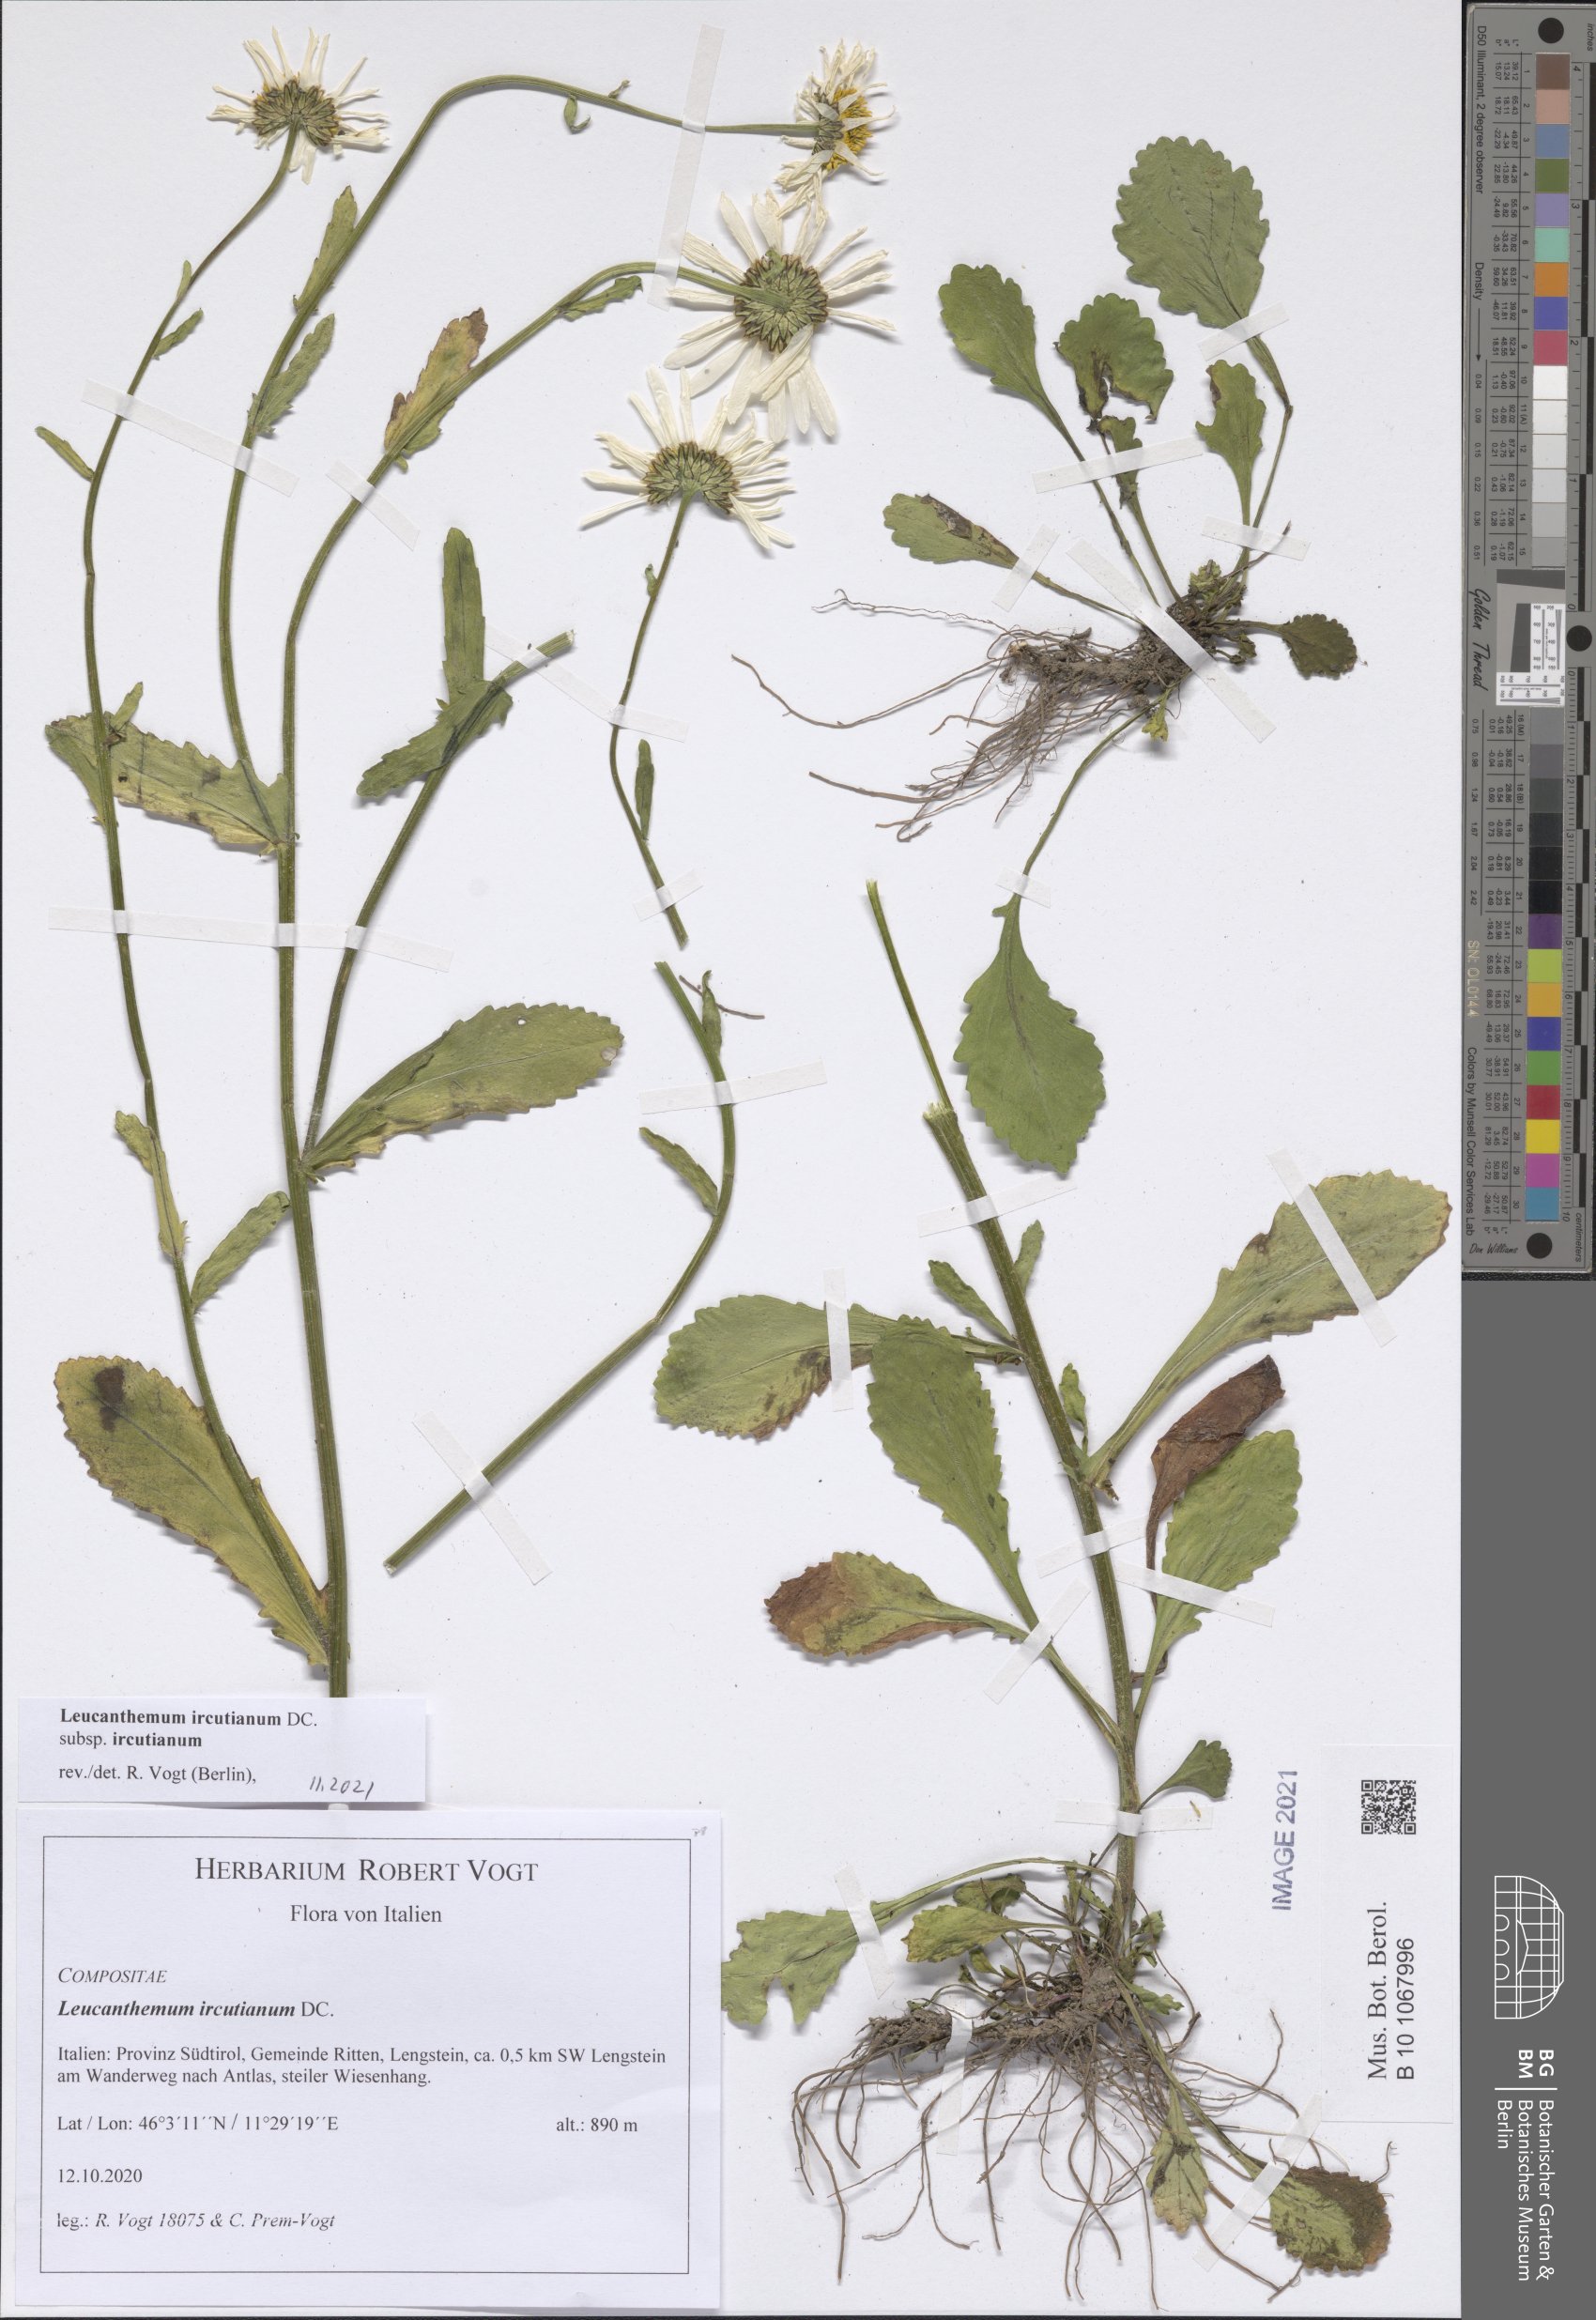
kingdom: Plantae
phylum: Tracheophyta
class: Magnoliopsida
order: Asterales
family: Asteraceae
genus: Leucanthemum
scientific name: Leucanthemum ircutianum
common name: Daisy
